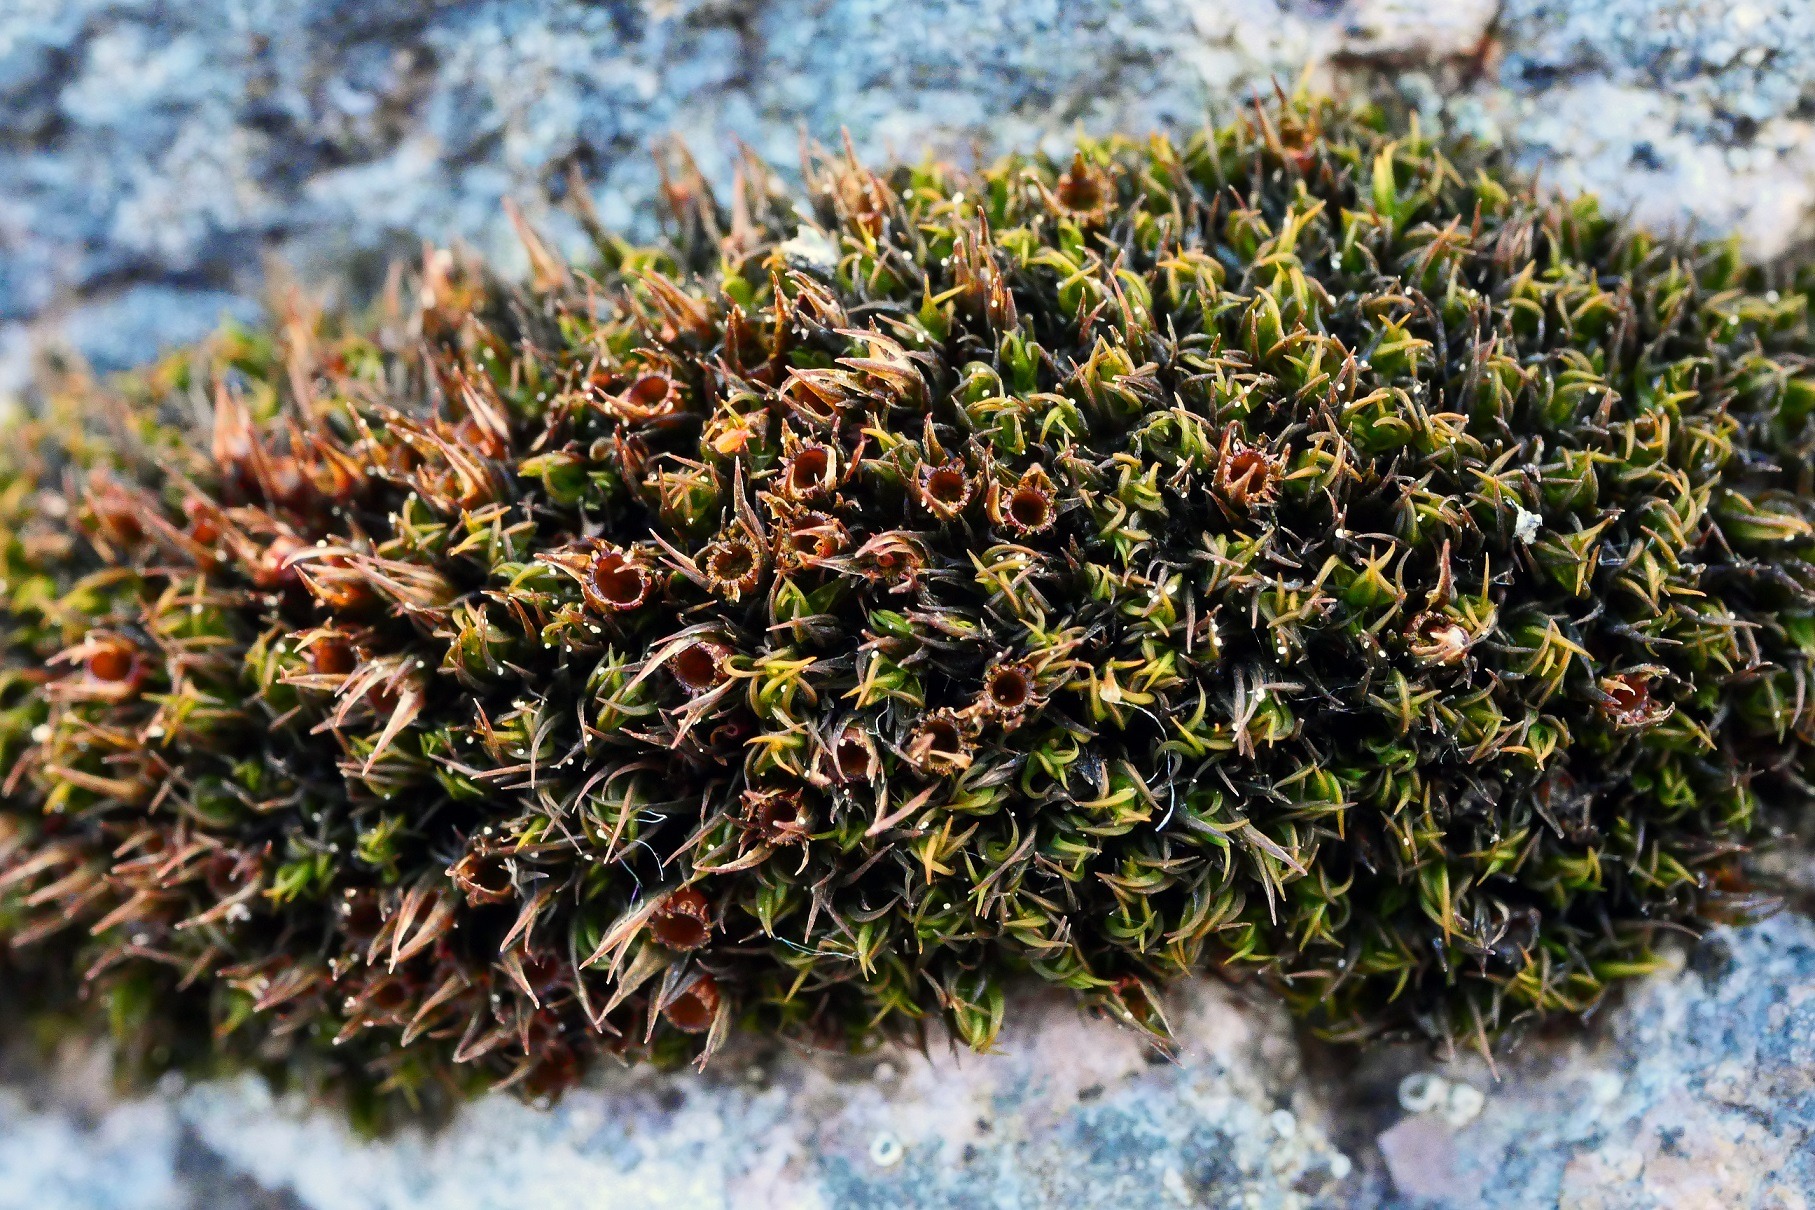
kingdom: Plantae
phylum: Bryophyta
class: Bryopsida
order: Grimmiales
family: Grimmiaceae
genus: Schistidium
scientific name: Schistidium maritimum
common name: Strand-strålekransmos
